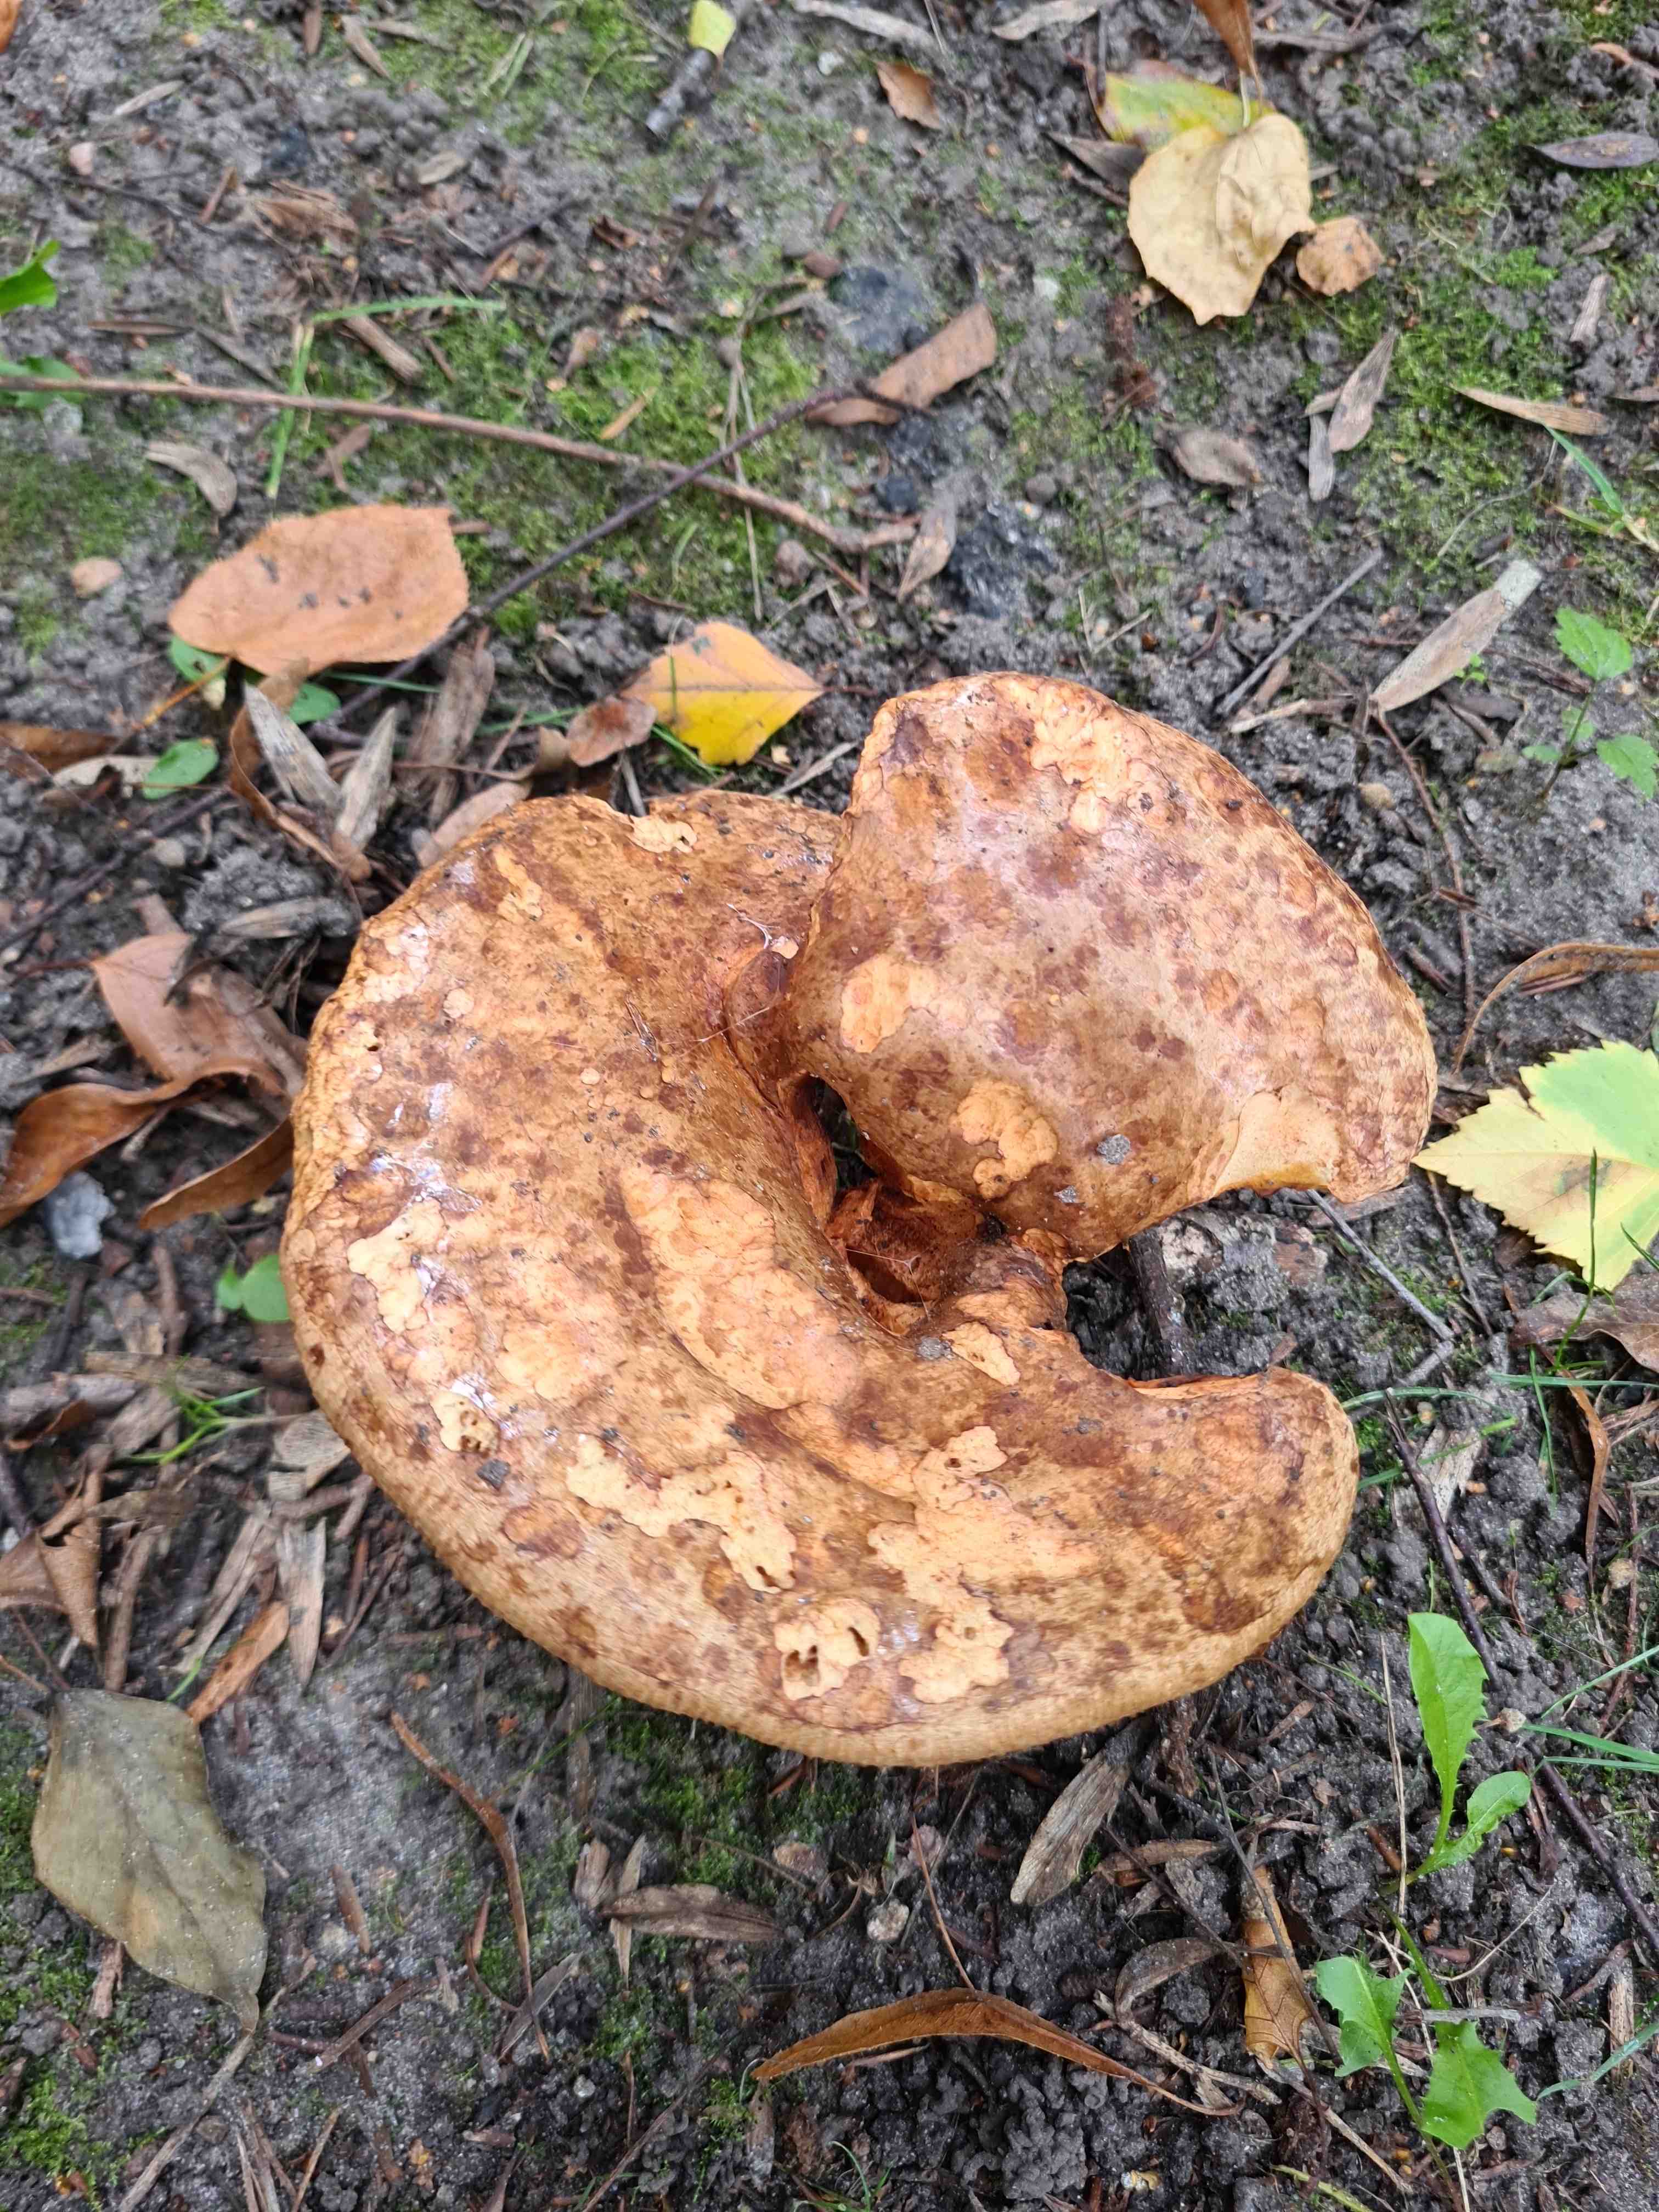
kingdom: Fungi
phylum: Basidiomycota
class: Agaricomycetes
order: Boletales
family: Paxillaceae
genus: Paxillus
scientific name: Paxillus ammoniavirescens
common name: olivensporet netbladhat
